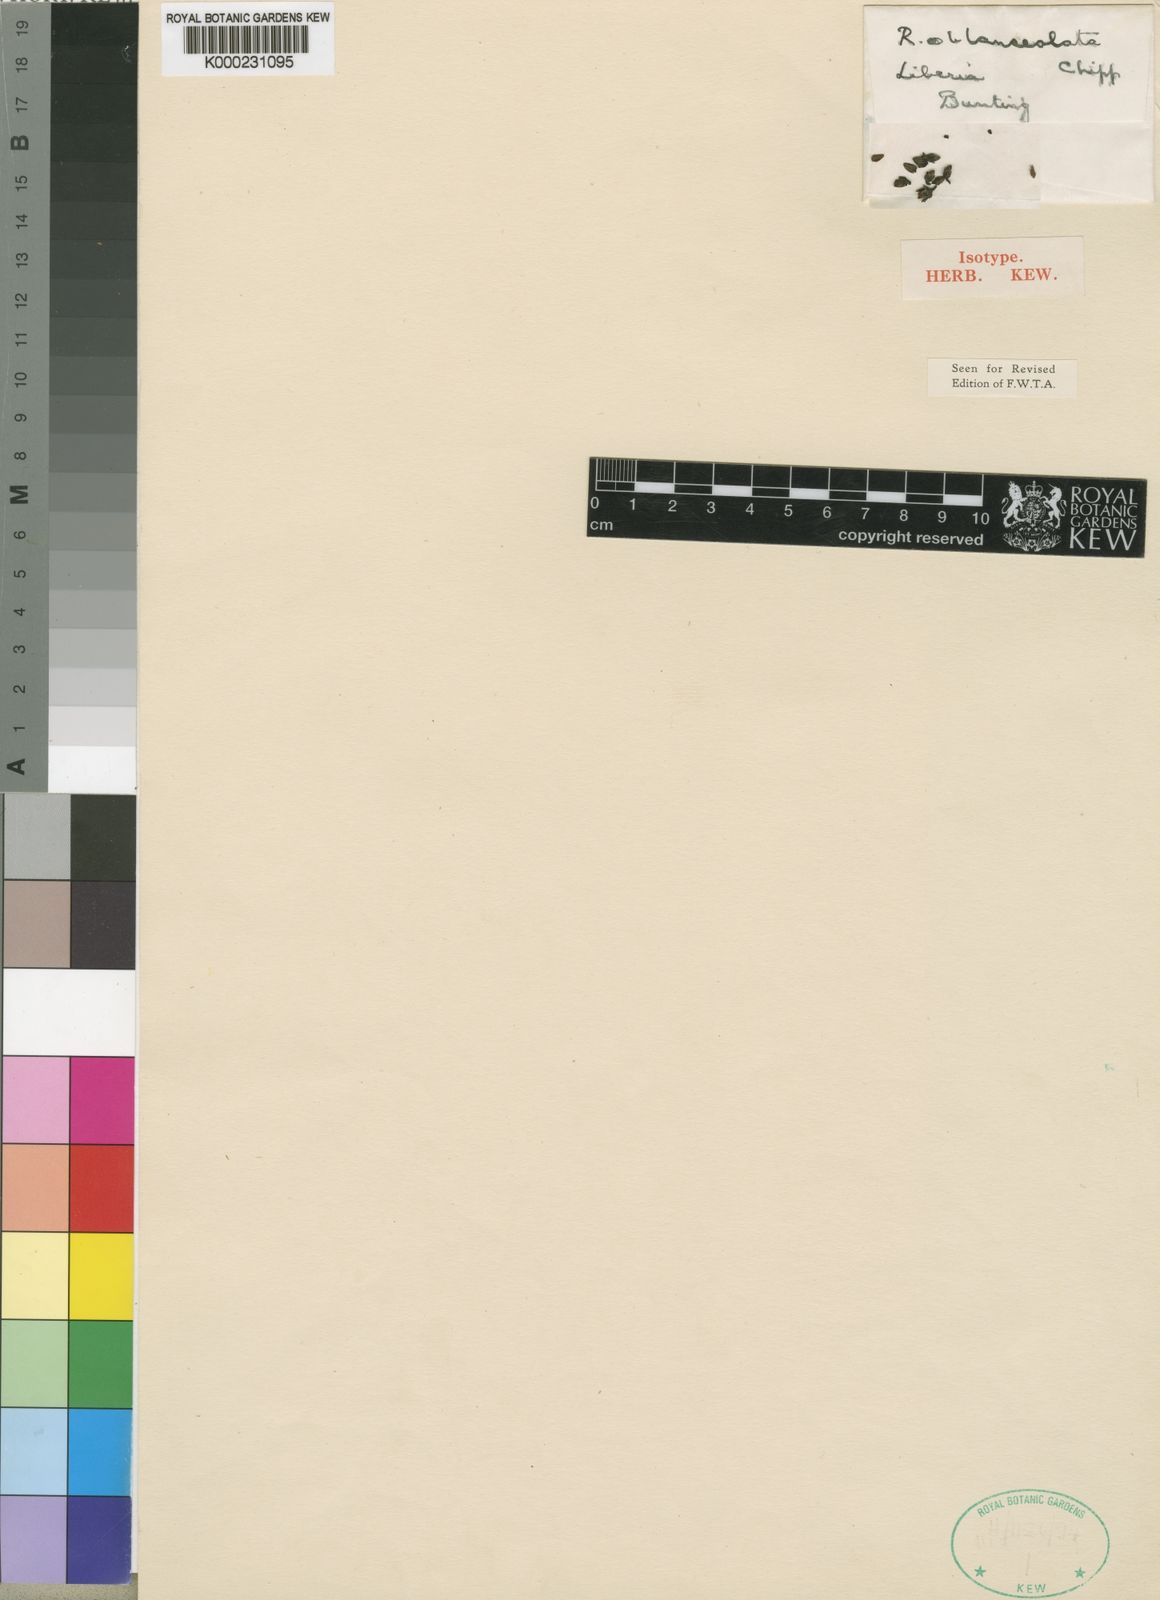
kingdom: Plantae
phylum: Tracheophyta
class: Magnoliopsida
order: Malpighiales
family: Violaceae
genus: Rinorea
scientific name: Rinorea oblanceolata
